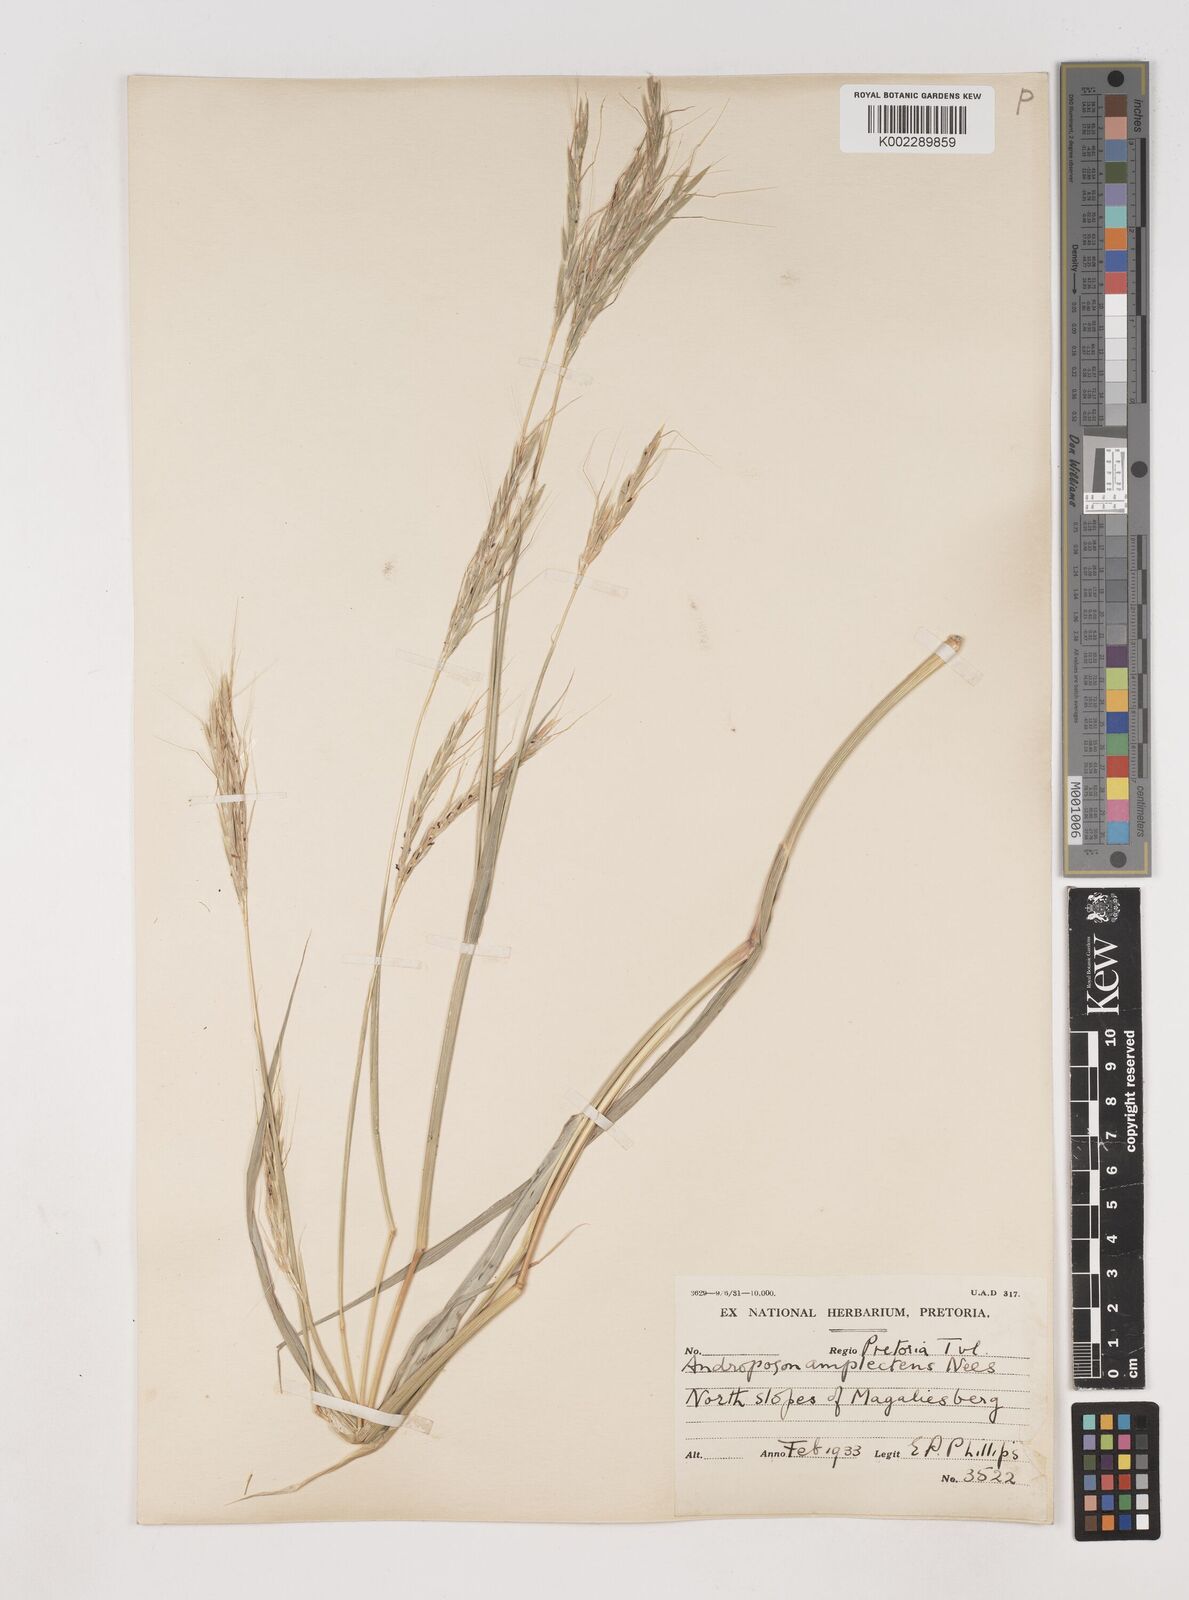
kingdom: Plantae
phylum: Tracheophyta
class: Liliopsida
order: Poales
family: Poaceae
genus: Diheteropogon
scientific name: Diheteropogon amplectens
